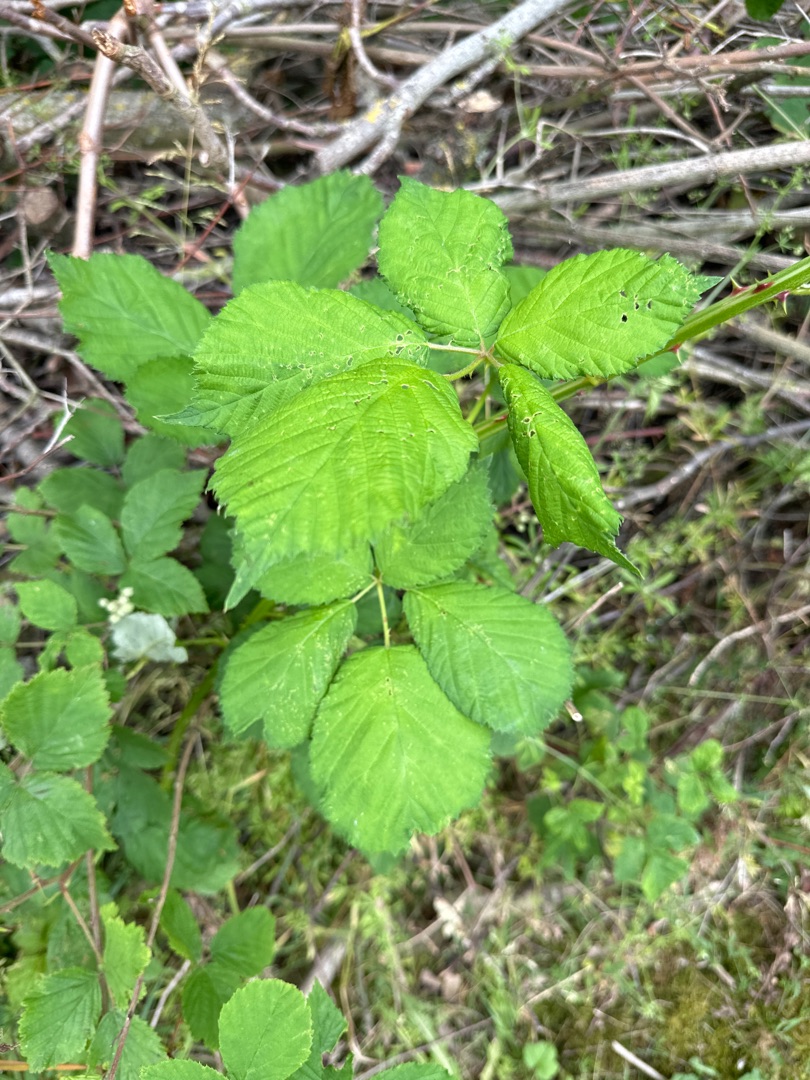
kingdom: Plantae
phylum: Tracheophyta
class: Magnoliopsida
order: Rosales
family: Rosaceae
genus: Rubus
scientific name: Rubus armeniacus
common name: Armensk brombær
